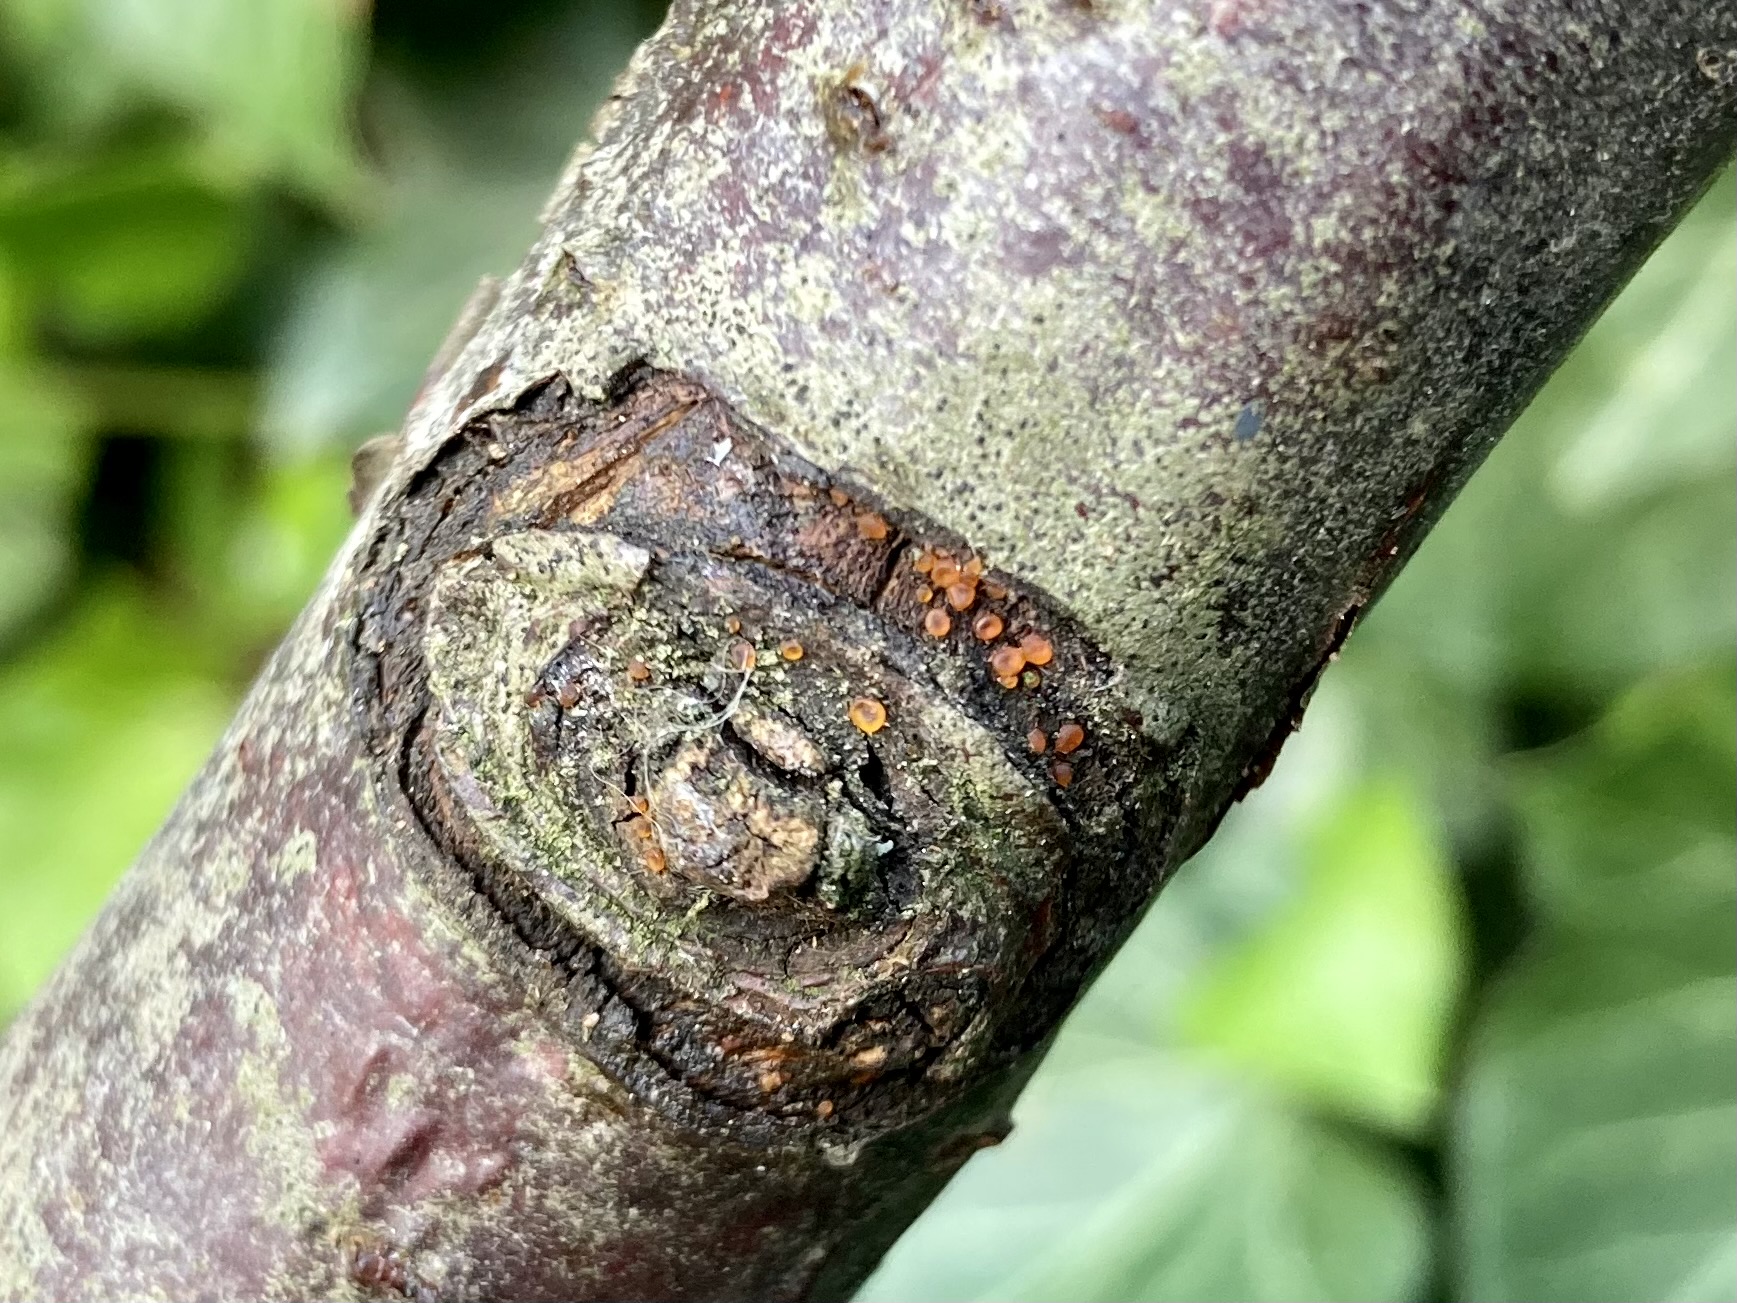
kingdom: Fungi
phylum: Ascomycota
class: Orbiliomycetes
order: Orbiliales
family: Orbiliaceae
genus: Orbilia
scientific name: Orbilia
